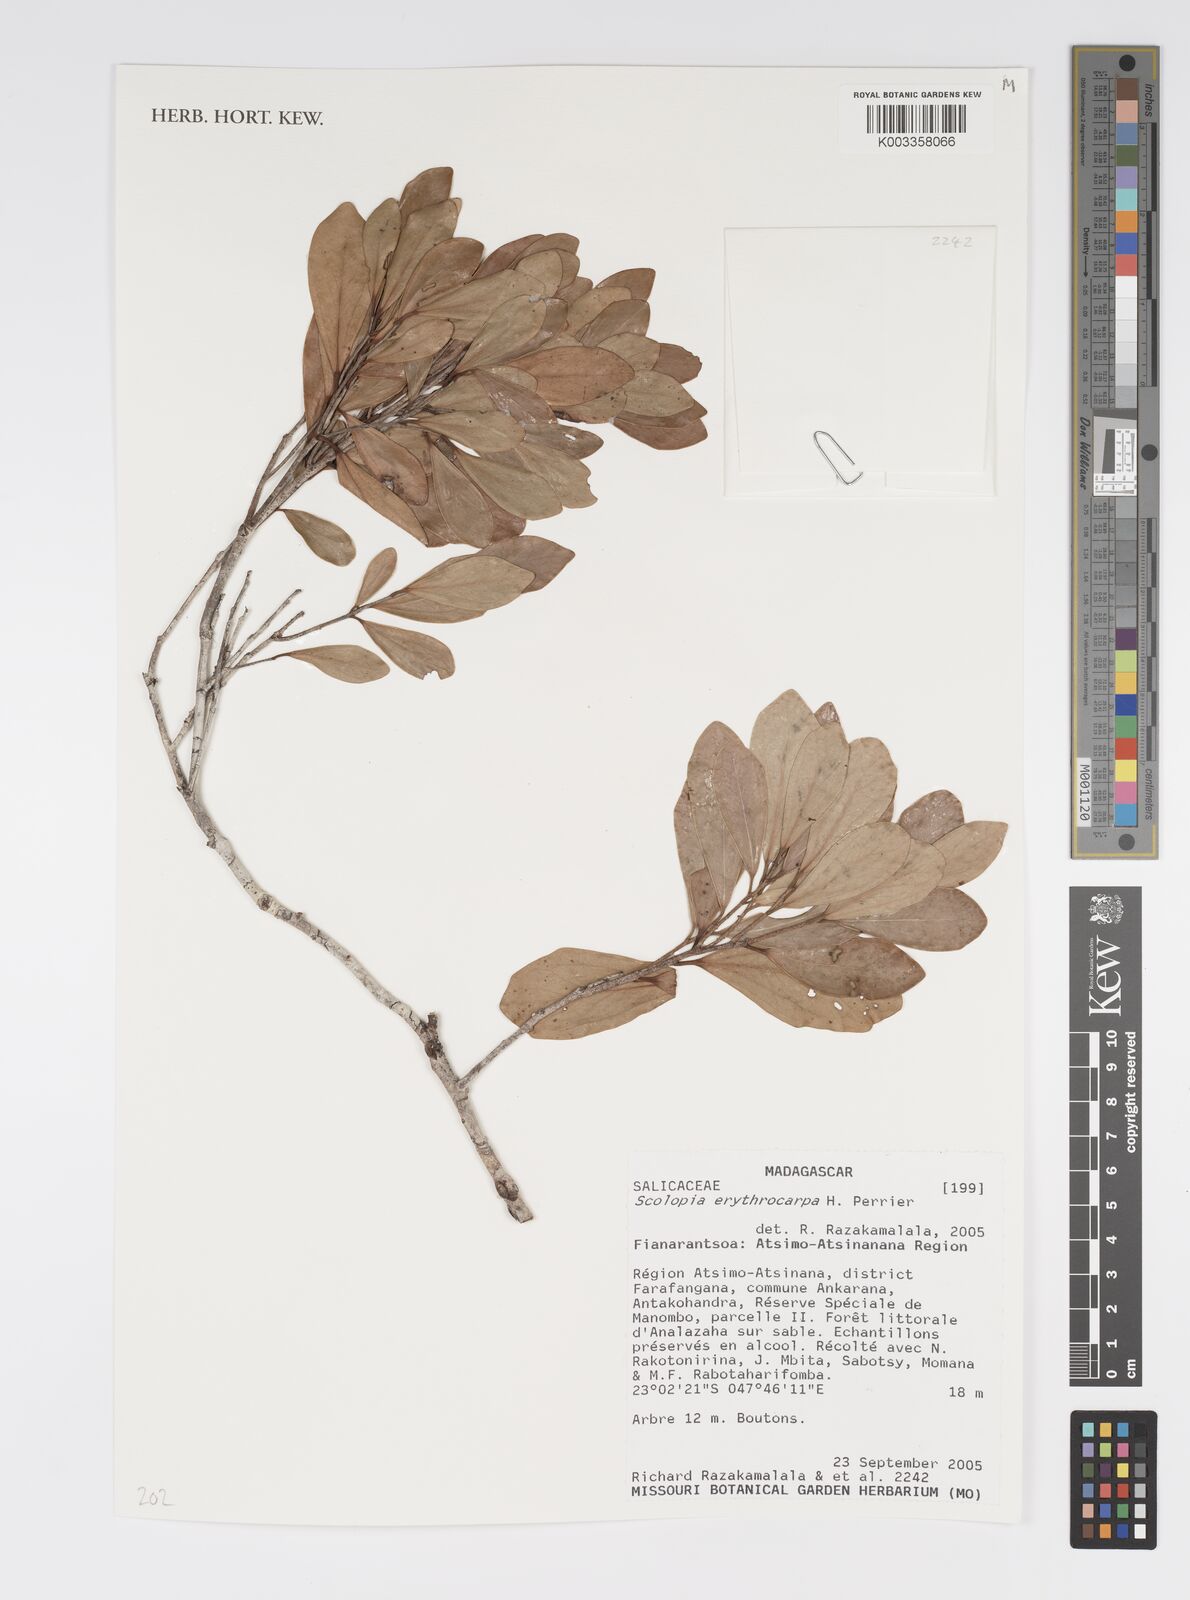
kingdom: Plantae
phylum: Tracheophyta
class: Magnoliopsida
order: Malpighiales
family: Salicaceae
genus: Scolopia
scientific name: Scolopia erythrocarpa
